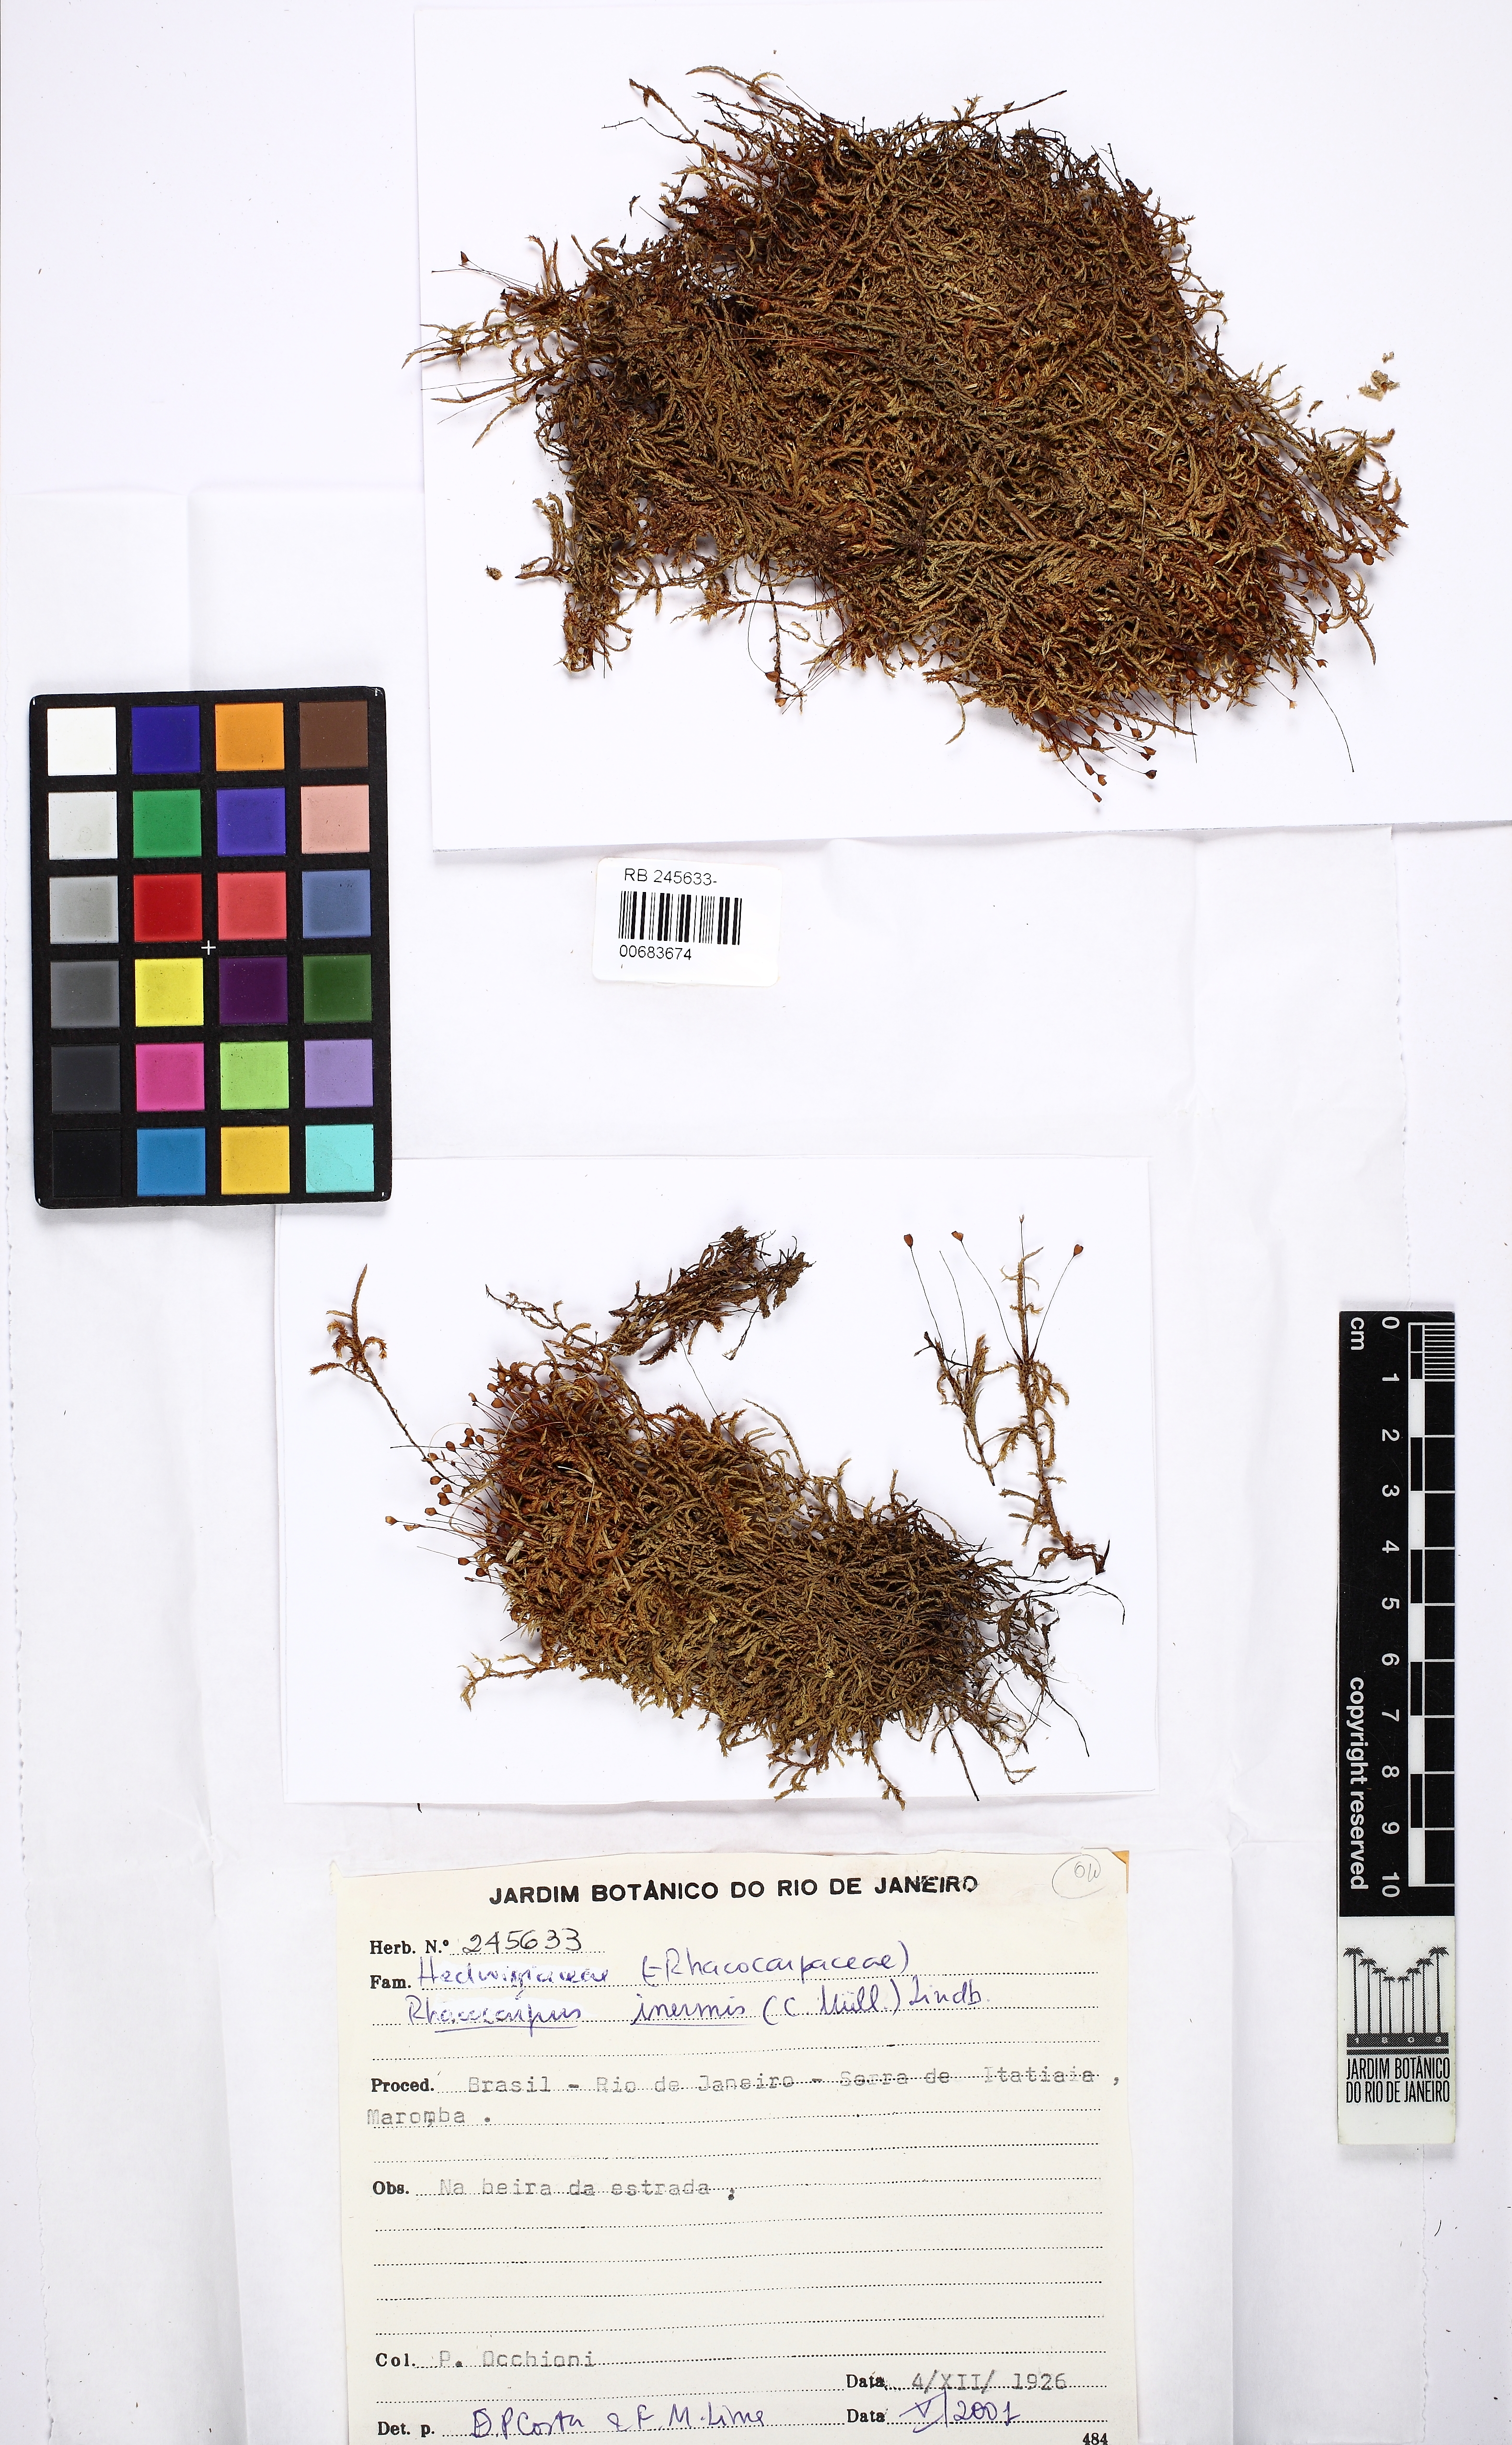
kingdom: Plantae
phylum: Bryophyta
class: Bryopsida
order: Hedwigiales
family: Hedwigiaceae
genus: Rhacocarpus
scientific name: Rhacocarpus inermis
